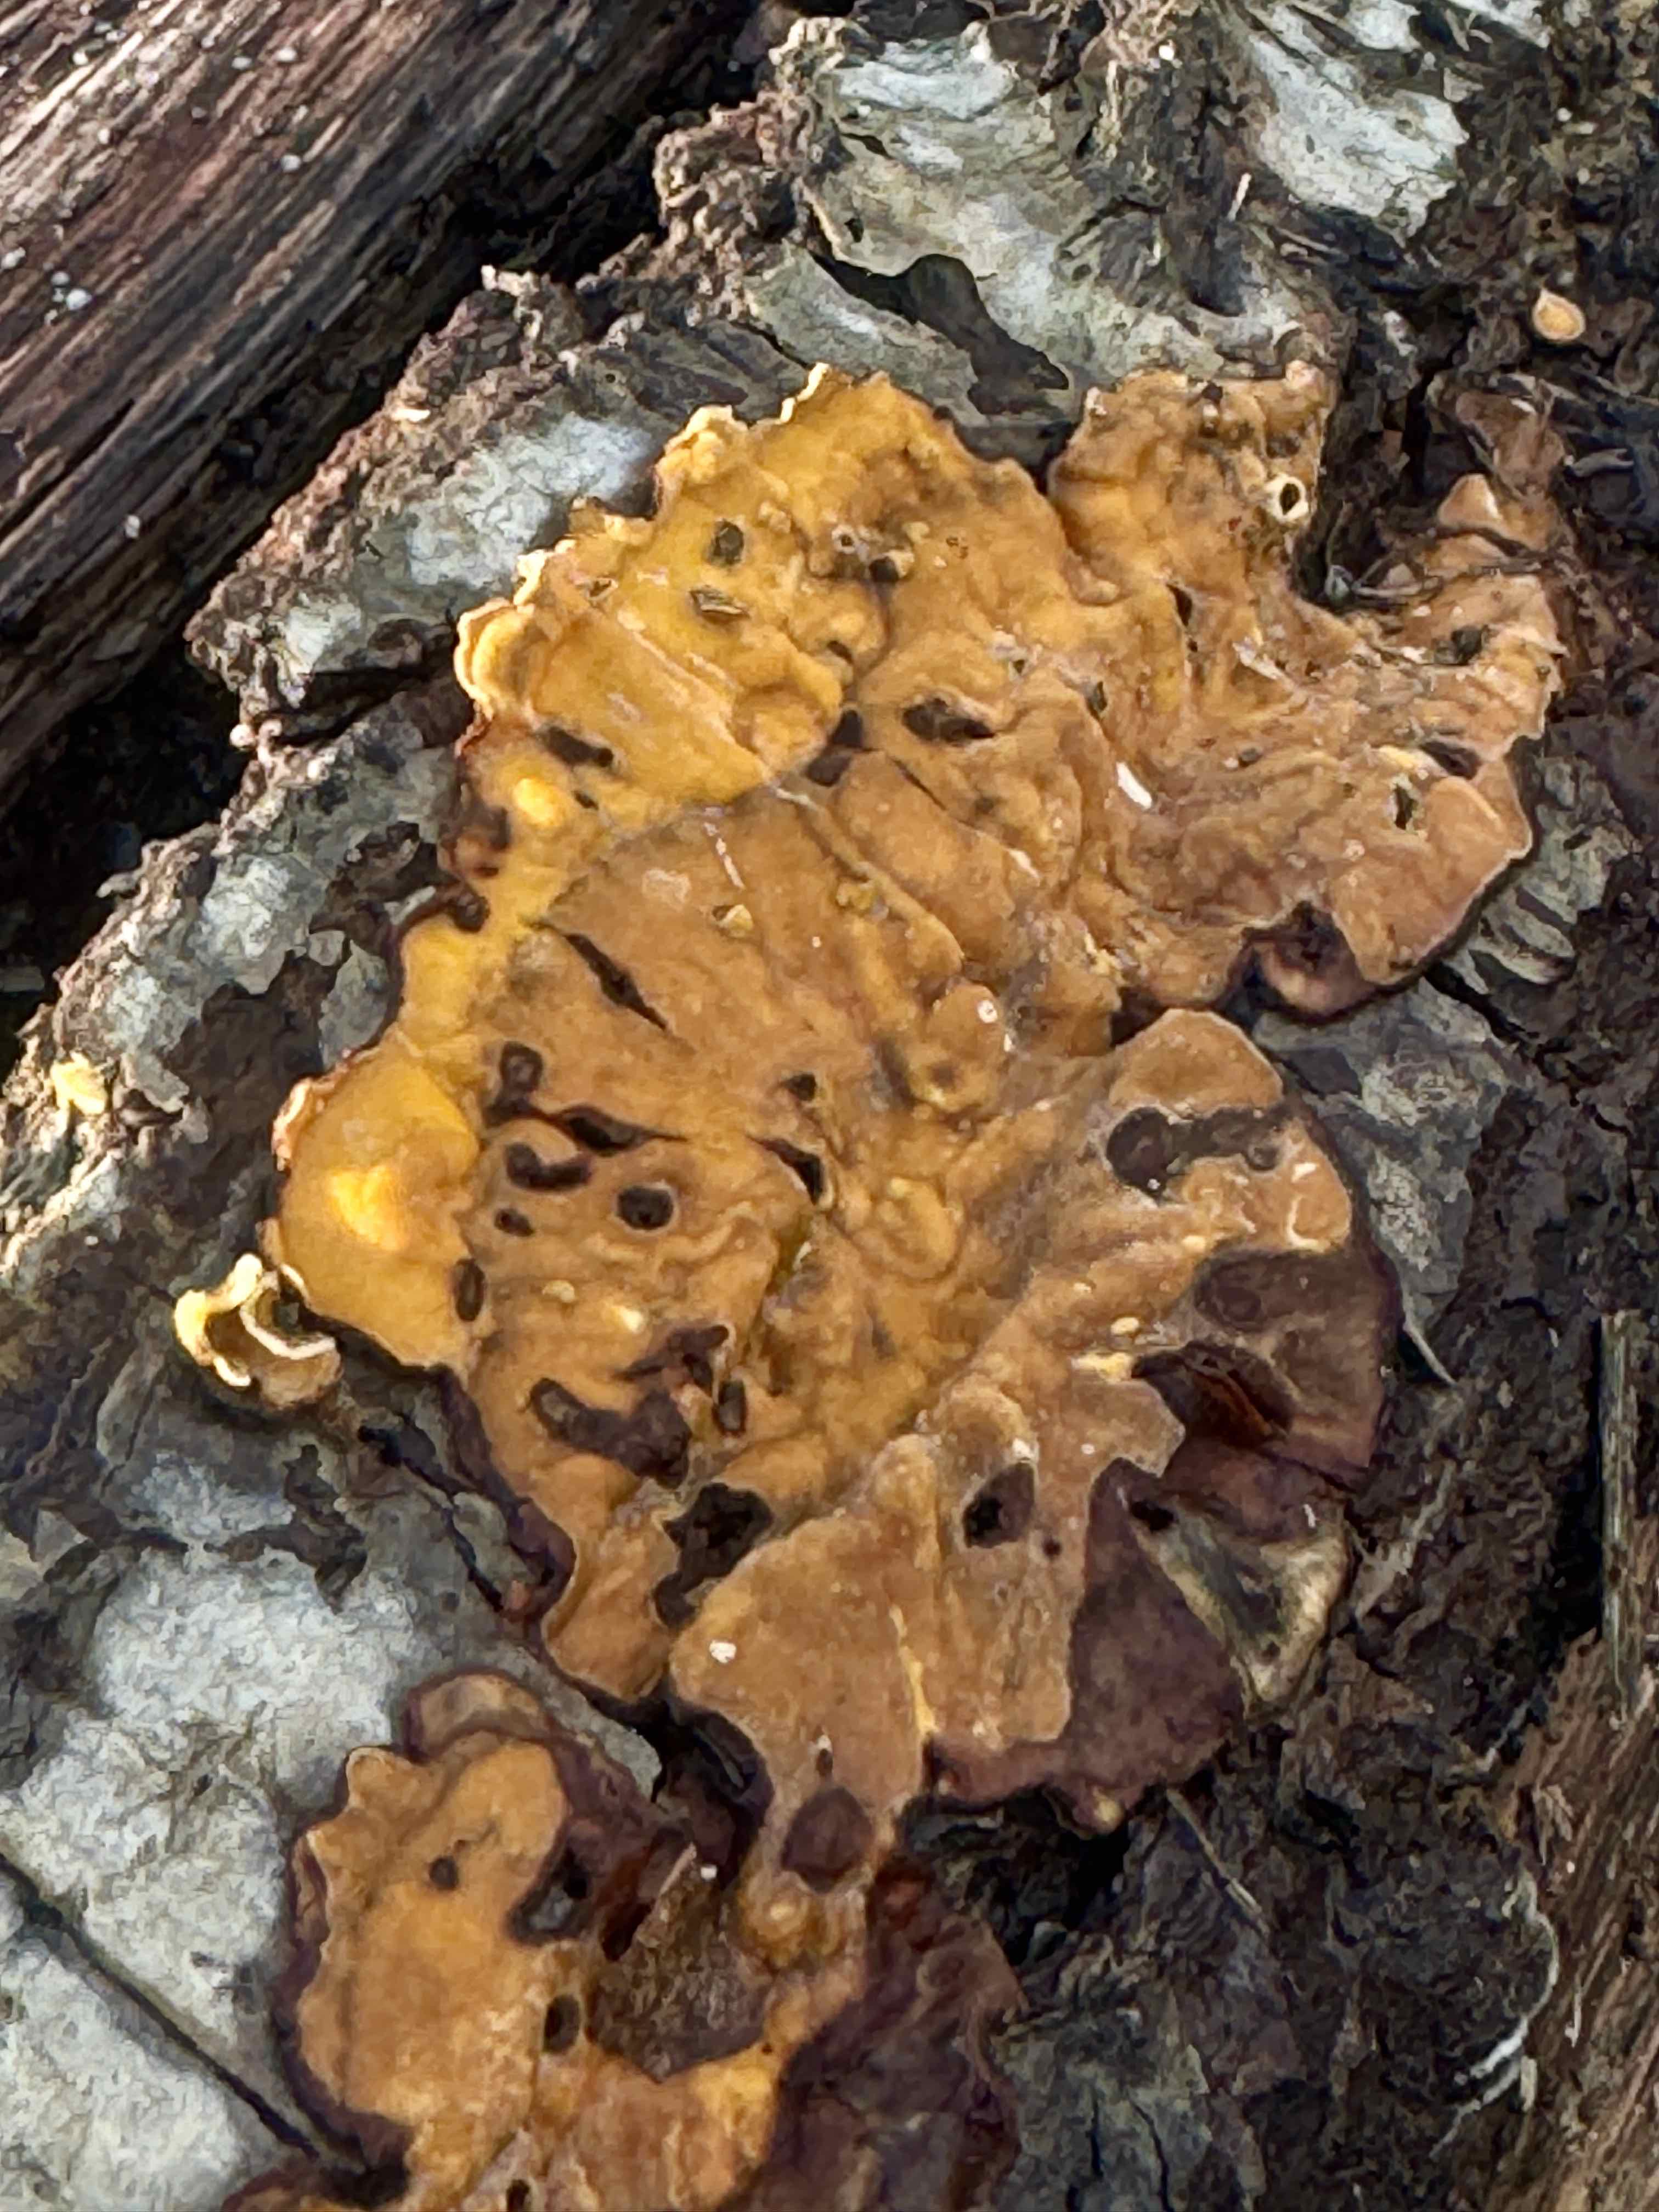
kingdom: Fungi
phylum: Basidiomycota
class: Agaricomycetes
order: Russulales
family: Stereaceae
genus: Stereum
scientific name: Stereum hirsutum
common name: håret lædersvamp
